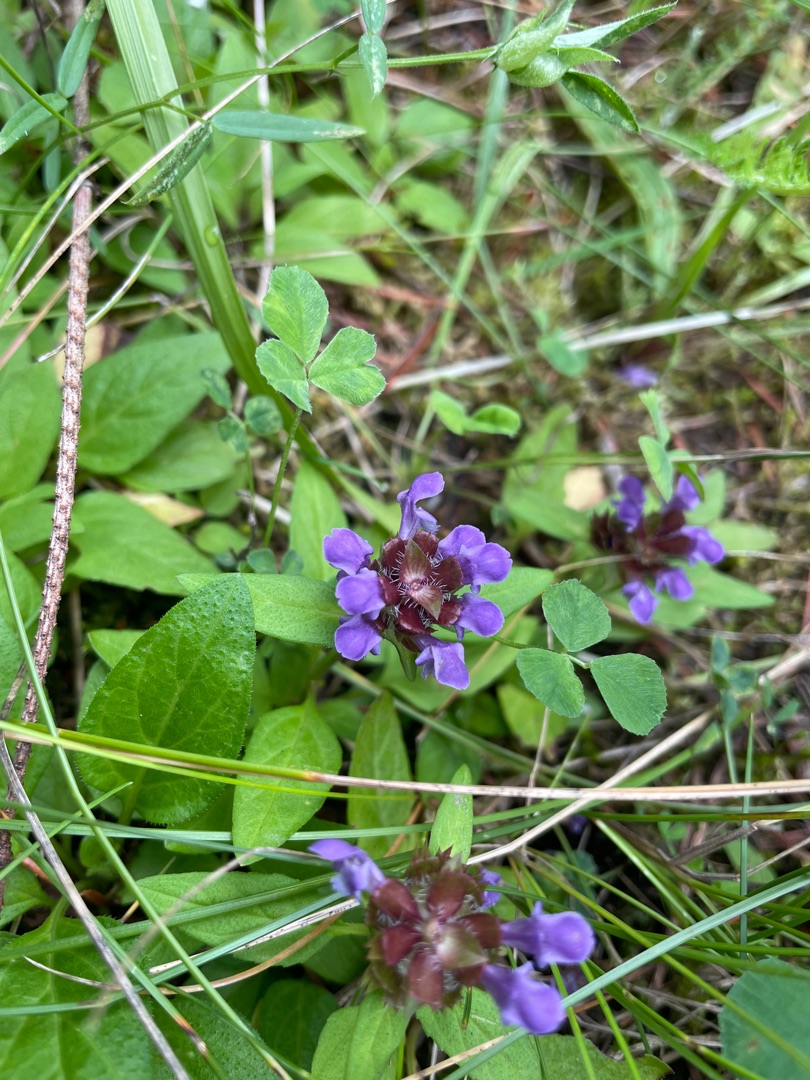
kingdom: Plantae
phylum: Tracheophyta
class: Magnoliopsida
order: Lamiales
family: Lamiaceae
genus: Prunella
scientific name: Prunella vulgaris
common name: Almindelig brunelle
